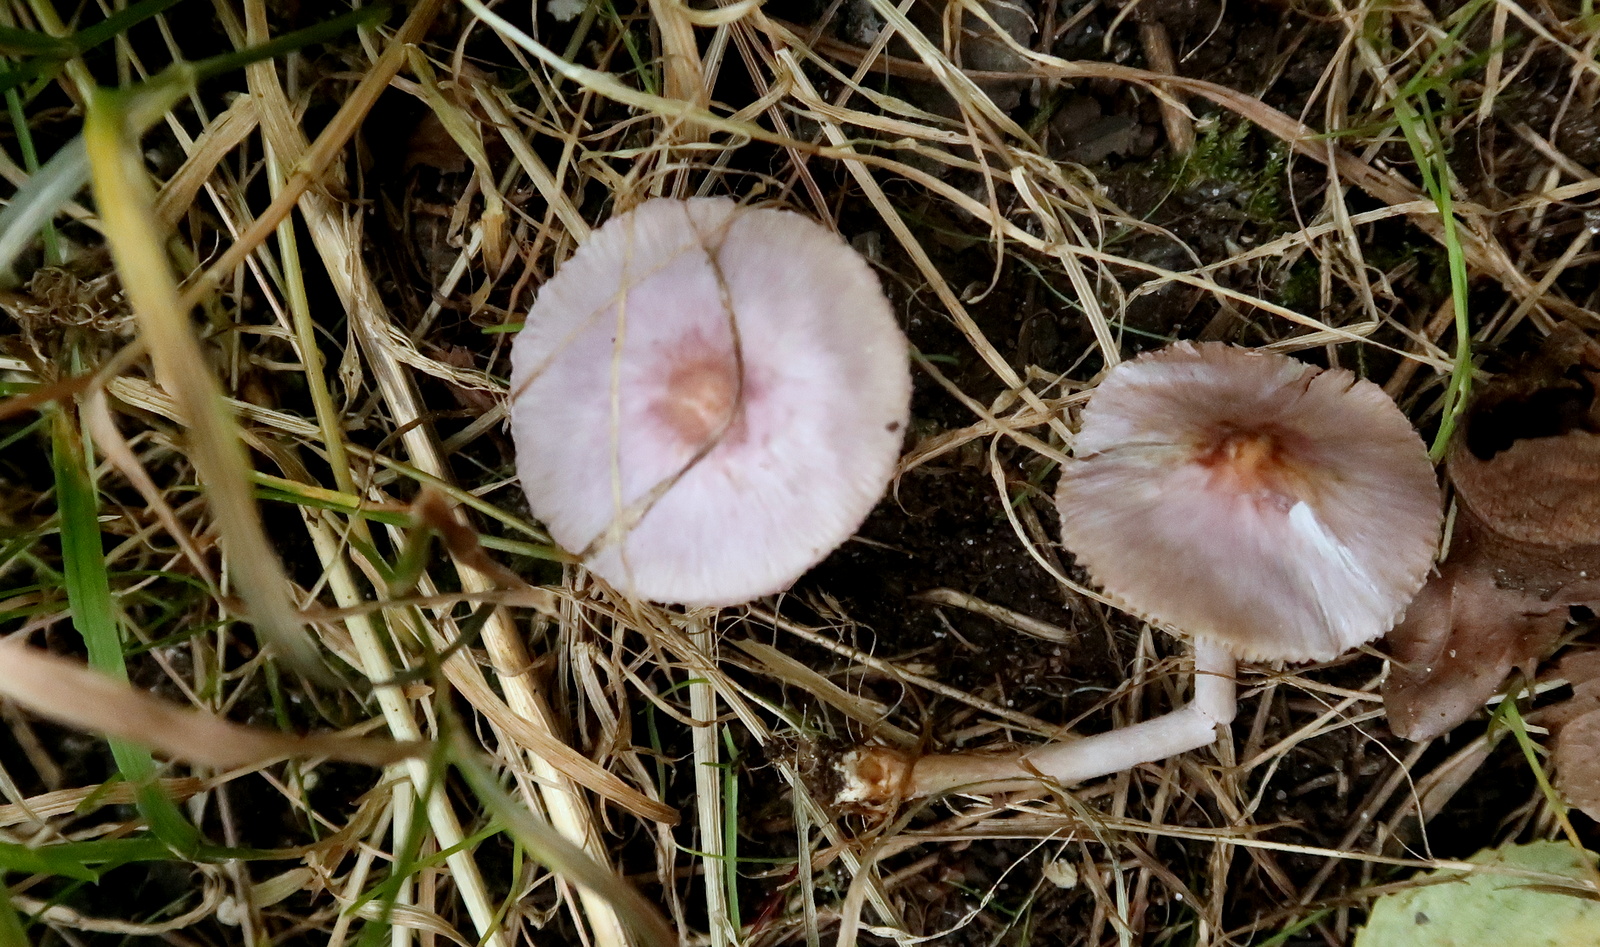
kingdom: Fungi
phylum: Basidiomycota
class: Agaricomycetes
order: Agaricales
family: Inocybaceae
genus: Inocybe
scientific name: Inocybe geophylla
